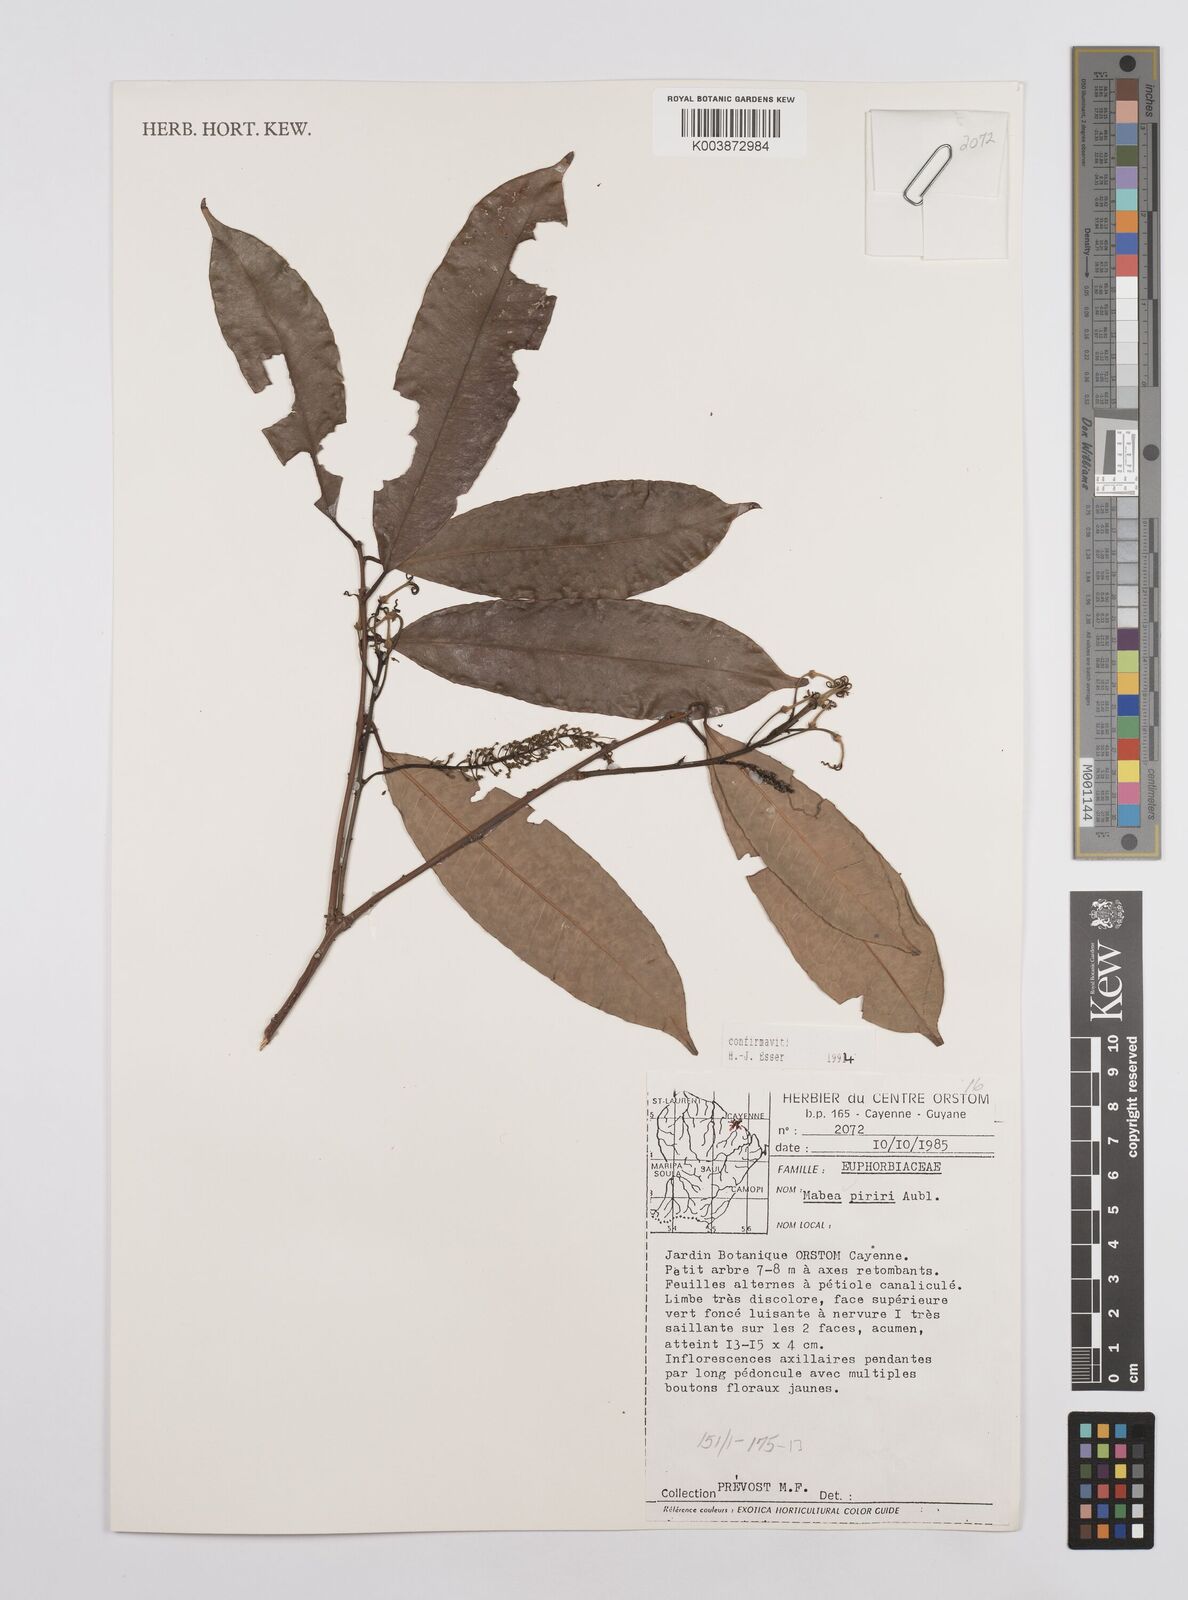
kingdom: Plantae
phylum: Tracheophyta
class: Magnoliopsida
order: Malpighiales
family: Euphorbiaceae
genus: Mabea
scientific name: Mabea piriri
